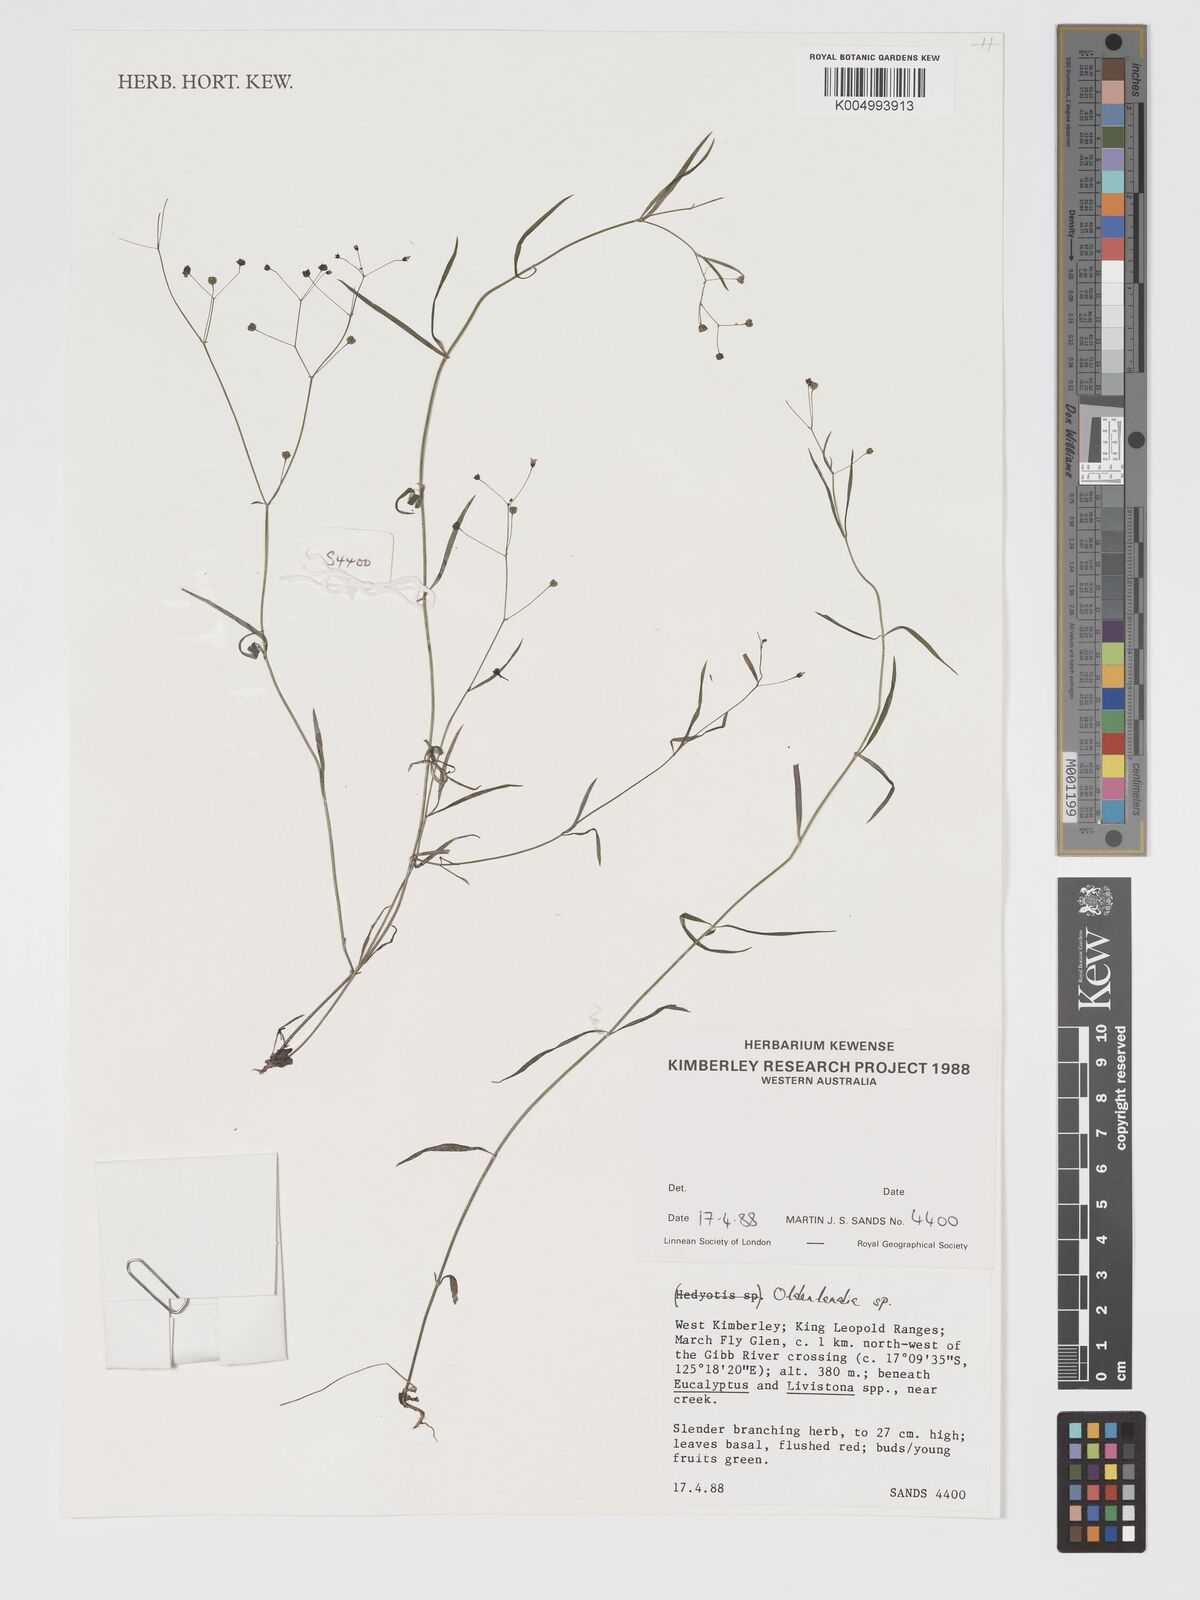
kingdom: Plantae
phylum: Tracheophyta
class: Magnoliopsida
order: Gentianales
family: Rubiaceae
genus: Oldenlandia
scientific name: Oldenlandia
